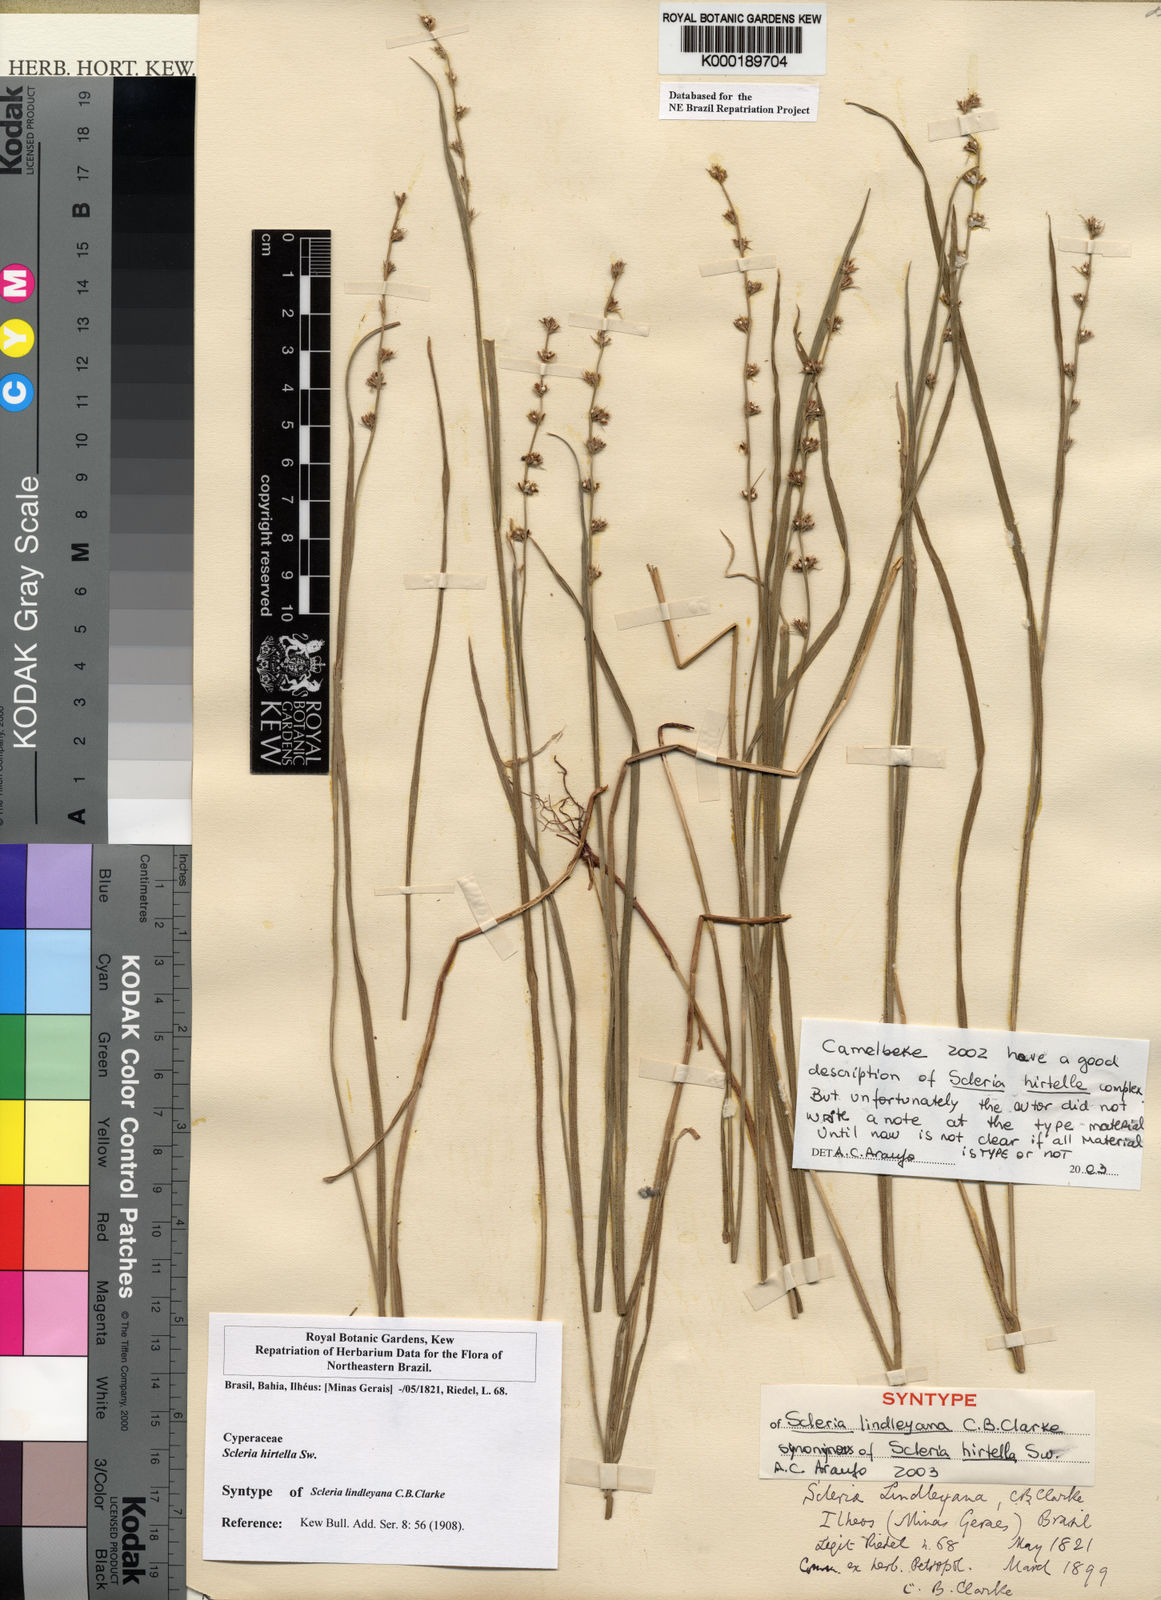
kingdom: Plantae
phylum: Tracheophyta
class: Liliopsida
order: Poales
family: Cyperaceae
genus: Scleria
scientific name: Scleria hirtella
